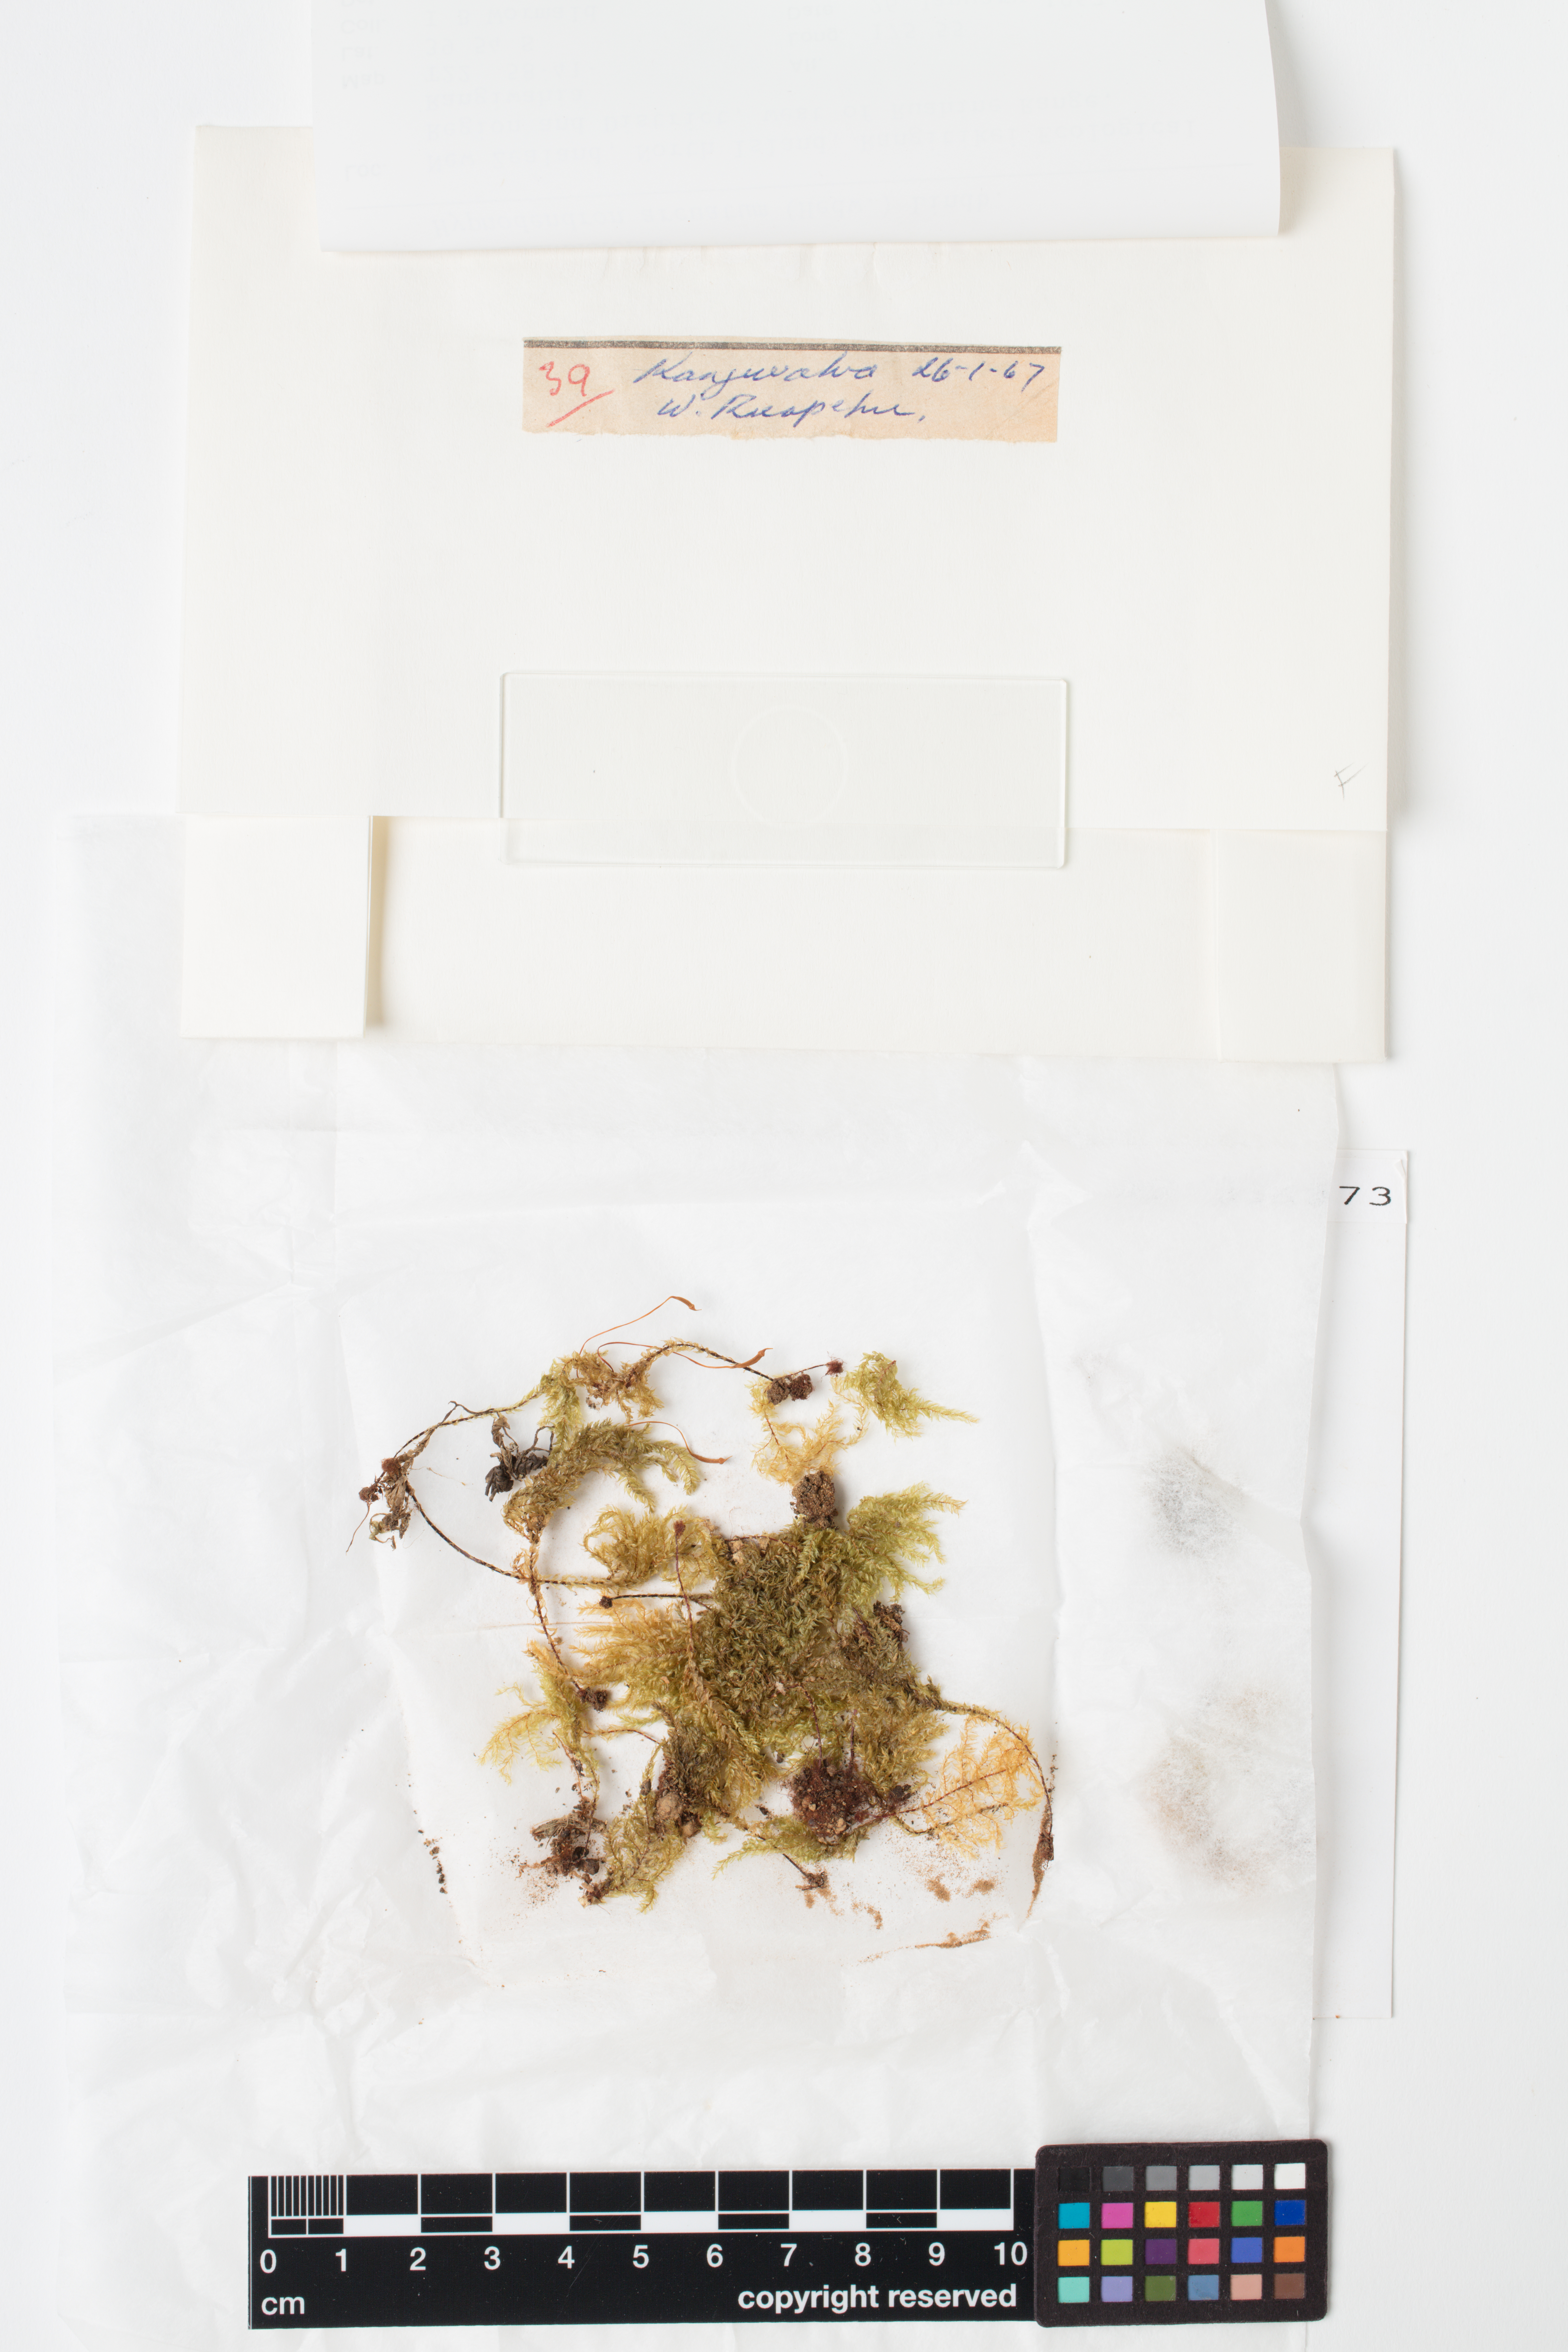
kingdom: Plantae
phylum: Bryophyta
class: Bryopsida
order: Hypnodendrales
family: Spiridentaceae
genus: Hypnodendron
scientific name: Hypnodendron arcuatum
